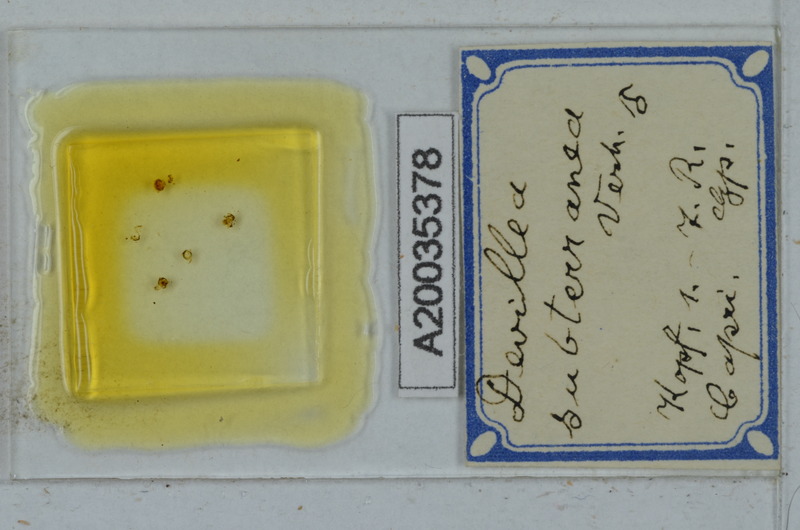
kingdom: Animalia
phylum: Arthropoda
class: Diplopoda
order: Polydesmida
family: Xystodesmidae
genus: Devillea
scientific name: Devillea subterranea
